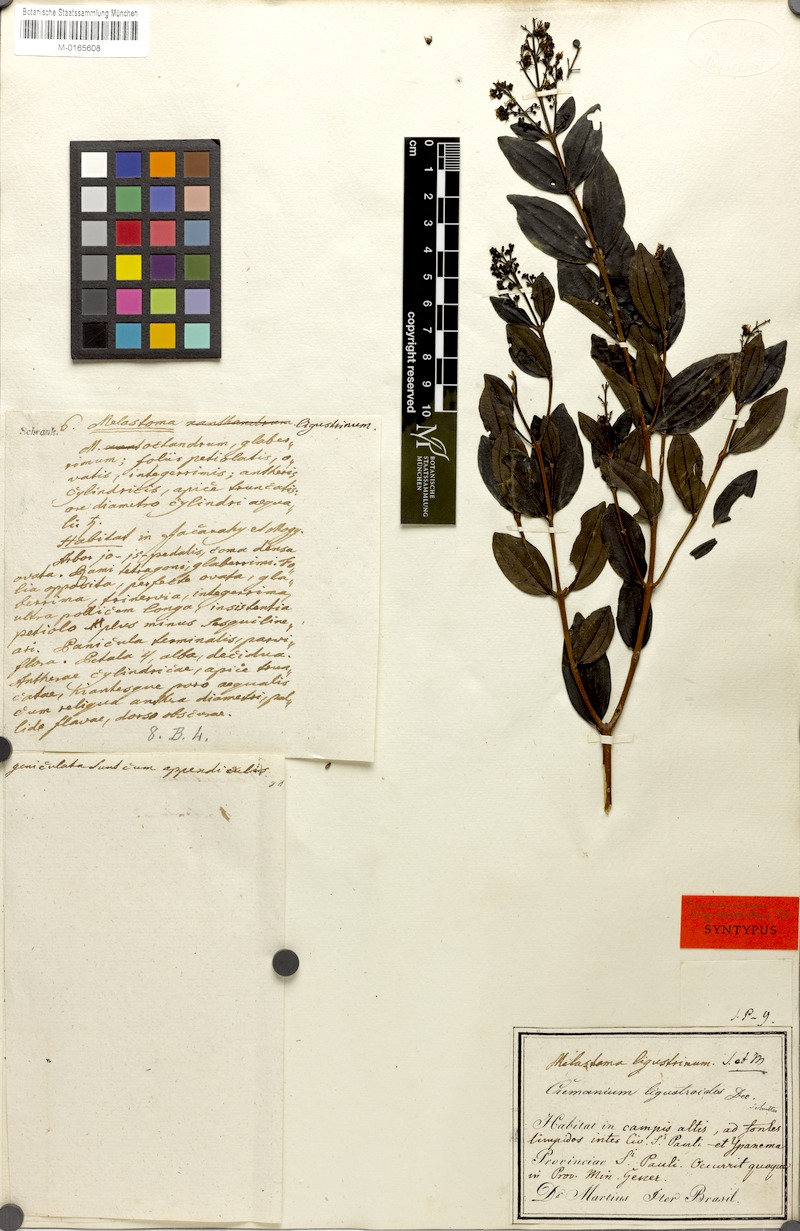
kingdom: Plantae
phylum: Tracheophyta
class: Magnoliopsida
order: Myrtales
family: Melastomataceae
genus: Miconia
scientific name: Miconia ligustroides
